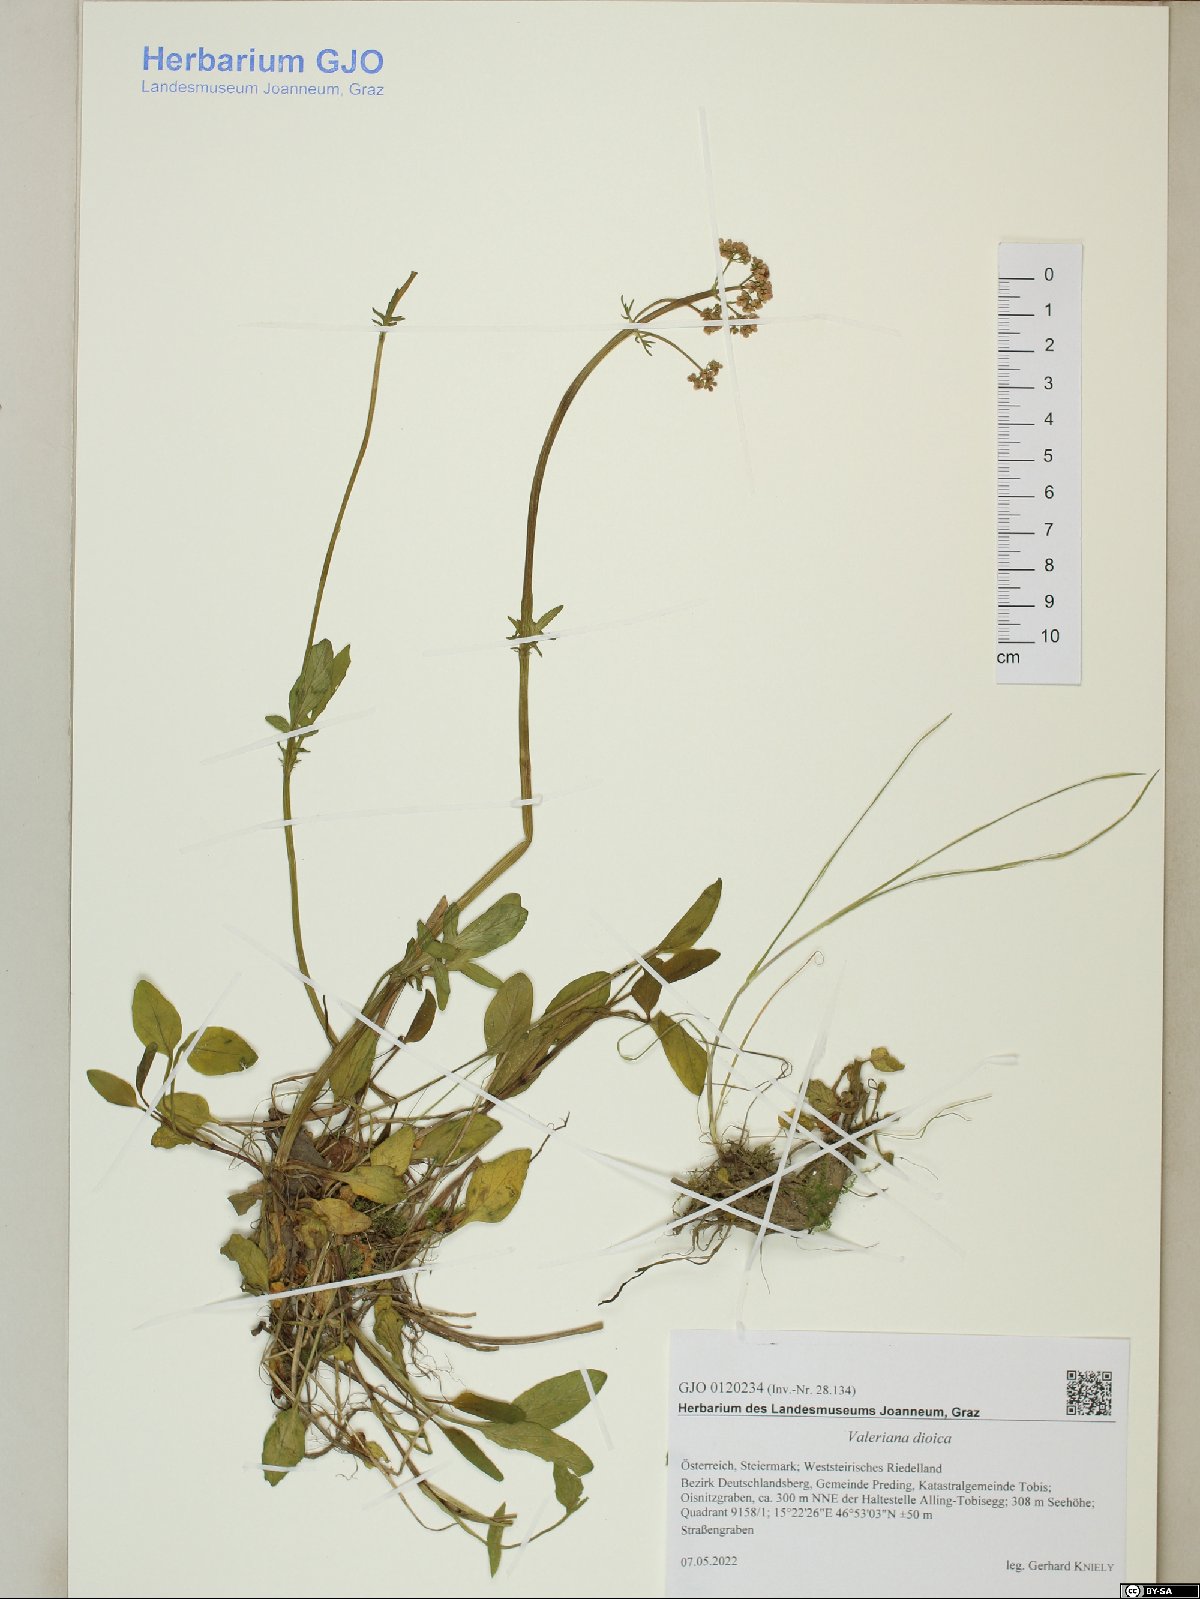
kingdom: Plantae
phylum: Tracheophyta
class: Magnoliopsida
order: Dipsacales
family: Caprifoliaceae
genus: Valeriana
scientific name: Valeriana dioica
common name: Marsh valerian
